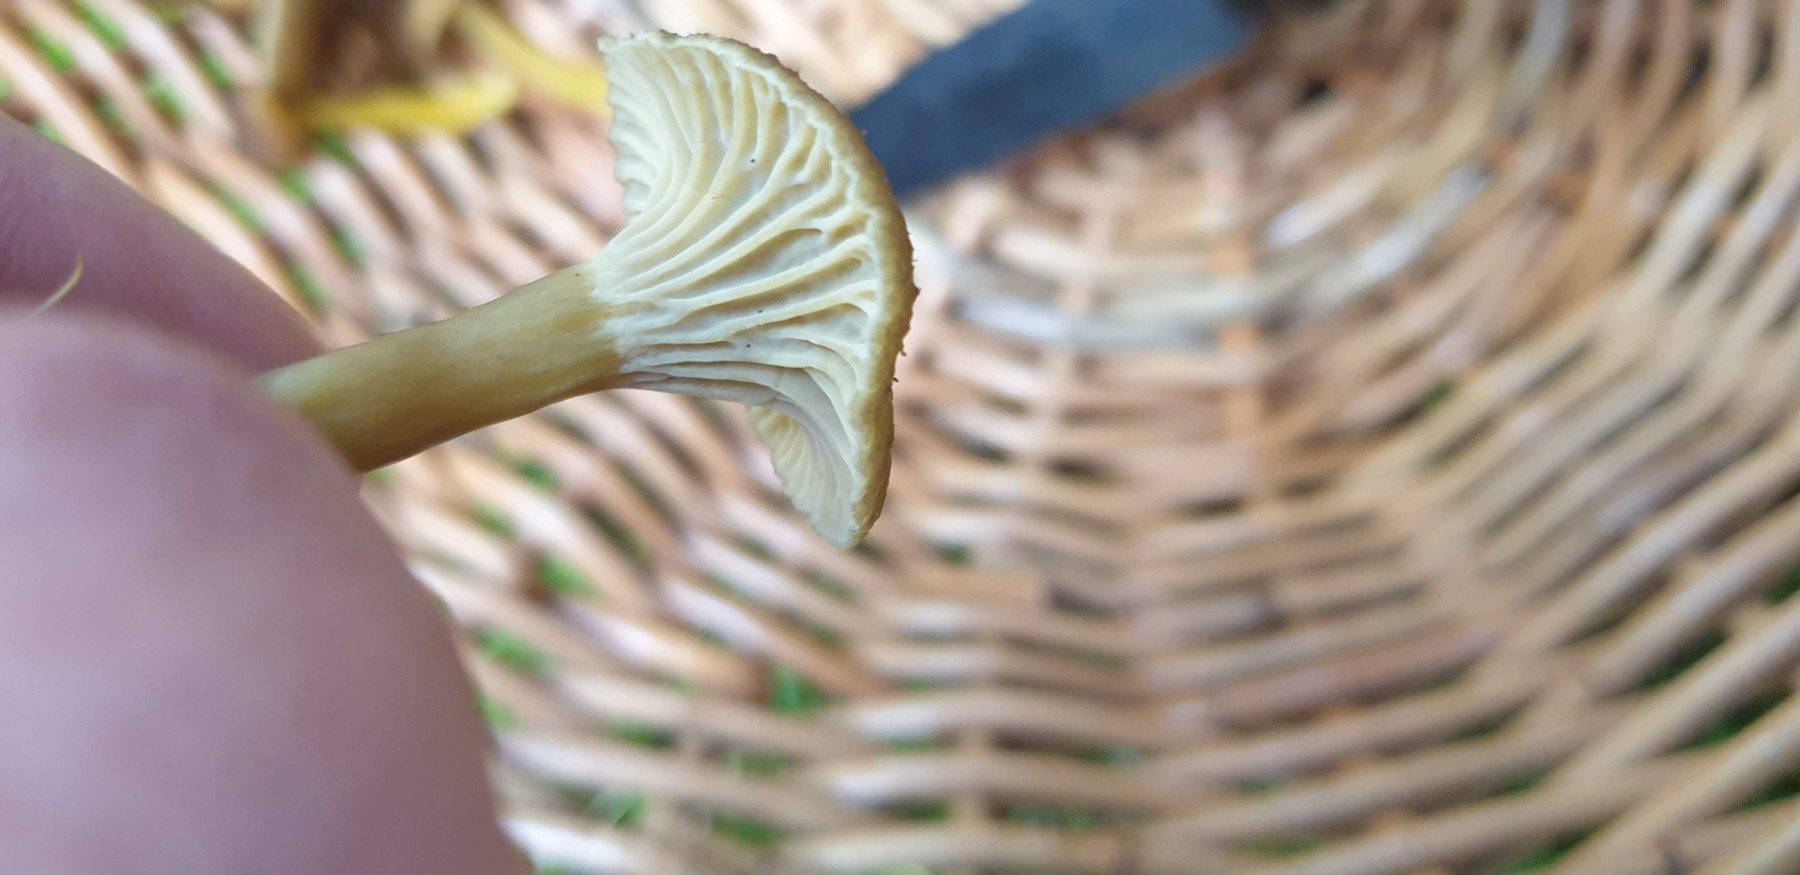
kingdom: Fungi
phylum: Basidiomycota
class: Agaricomycetes
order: Cantharellales
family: Hydnaceae
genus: Craterellus
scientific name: Craterellus tubaeformis
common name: tragt-kantarel
